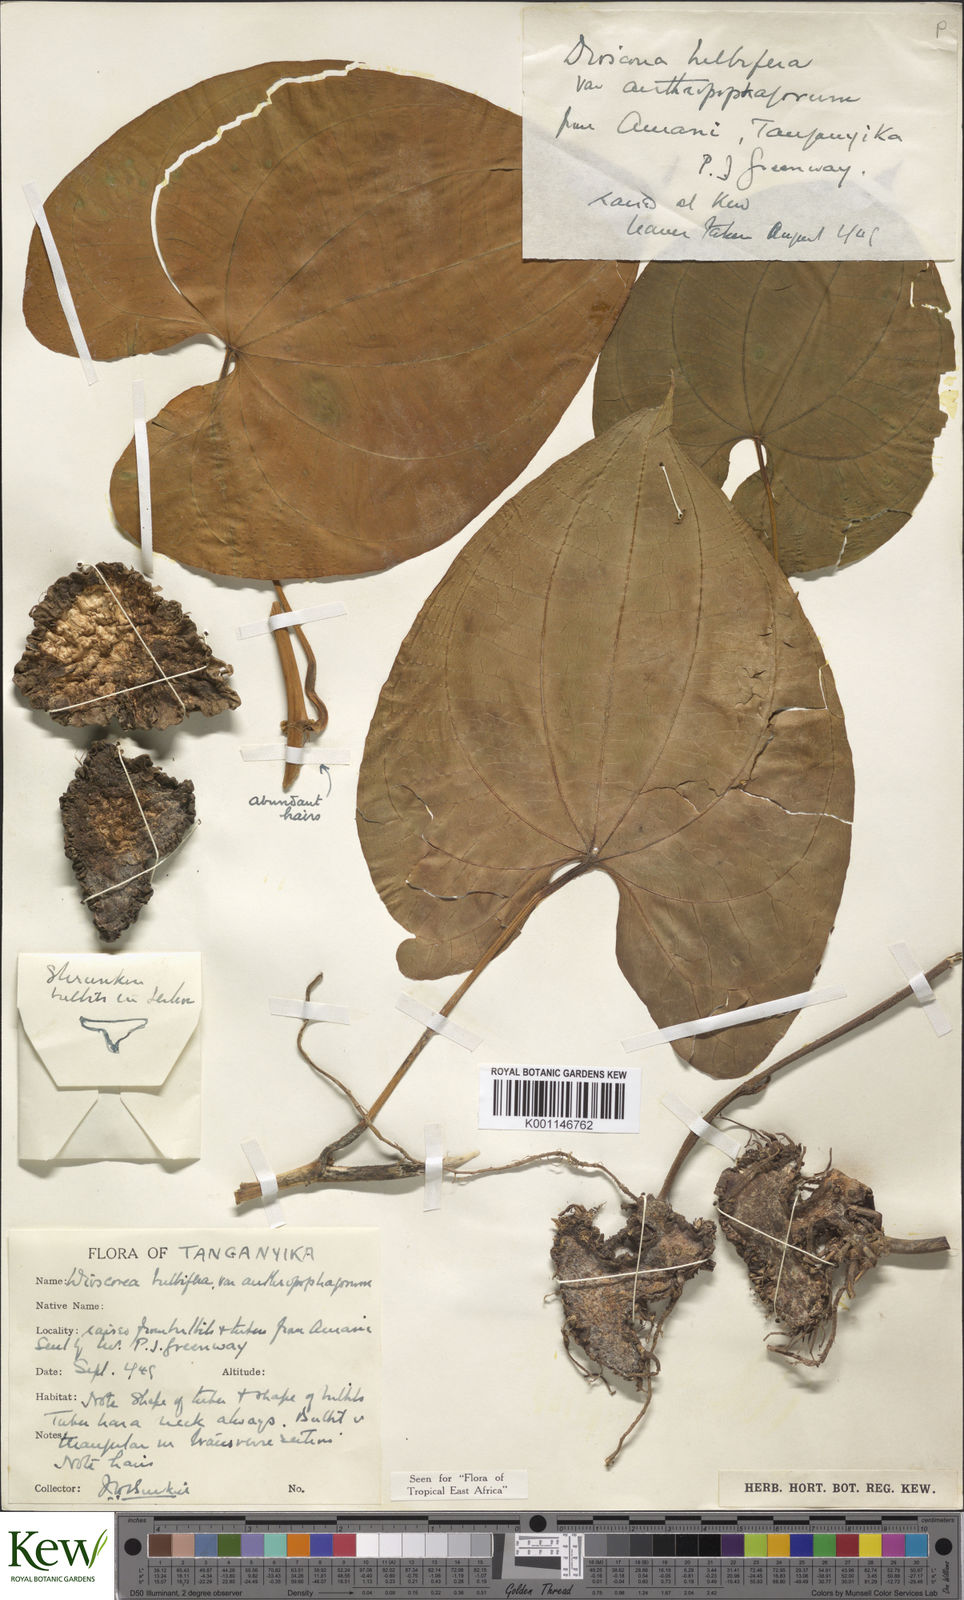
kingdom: Plantae
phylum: Tracheophyta
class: Liliopsida
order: Dioscoreales
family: Dioscoreaceae
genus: Dioscorea
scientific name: Dioscorea bulbifera
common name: Air yam
